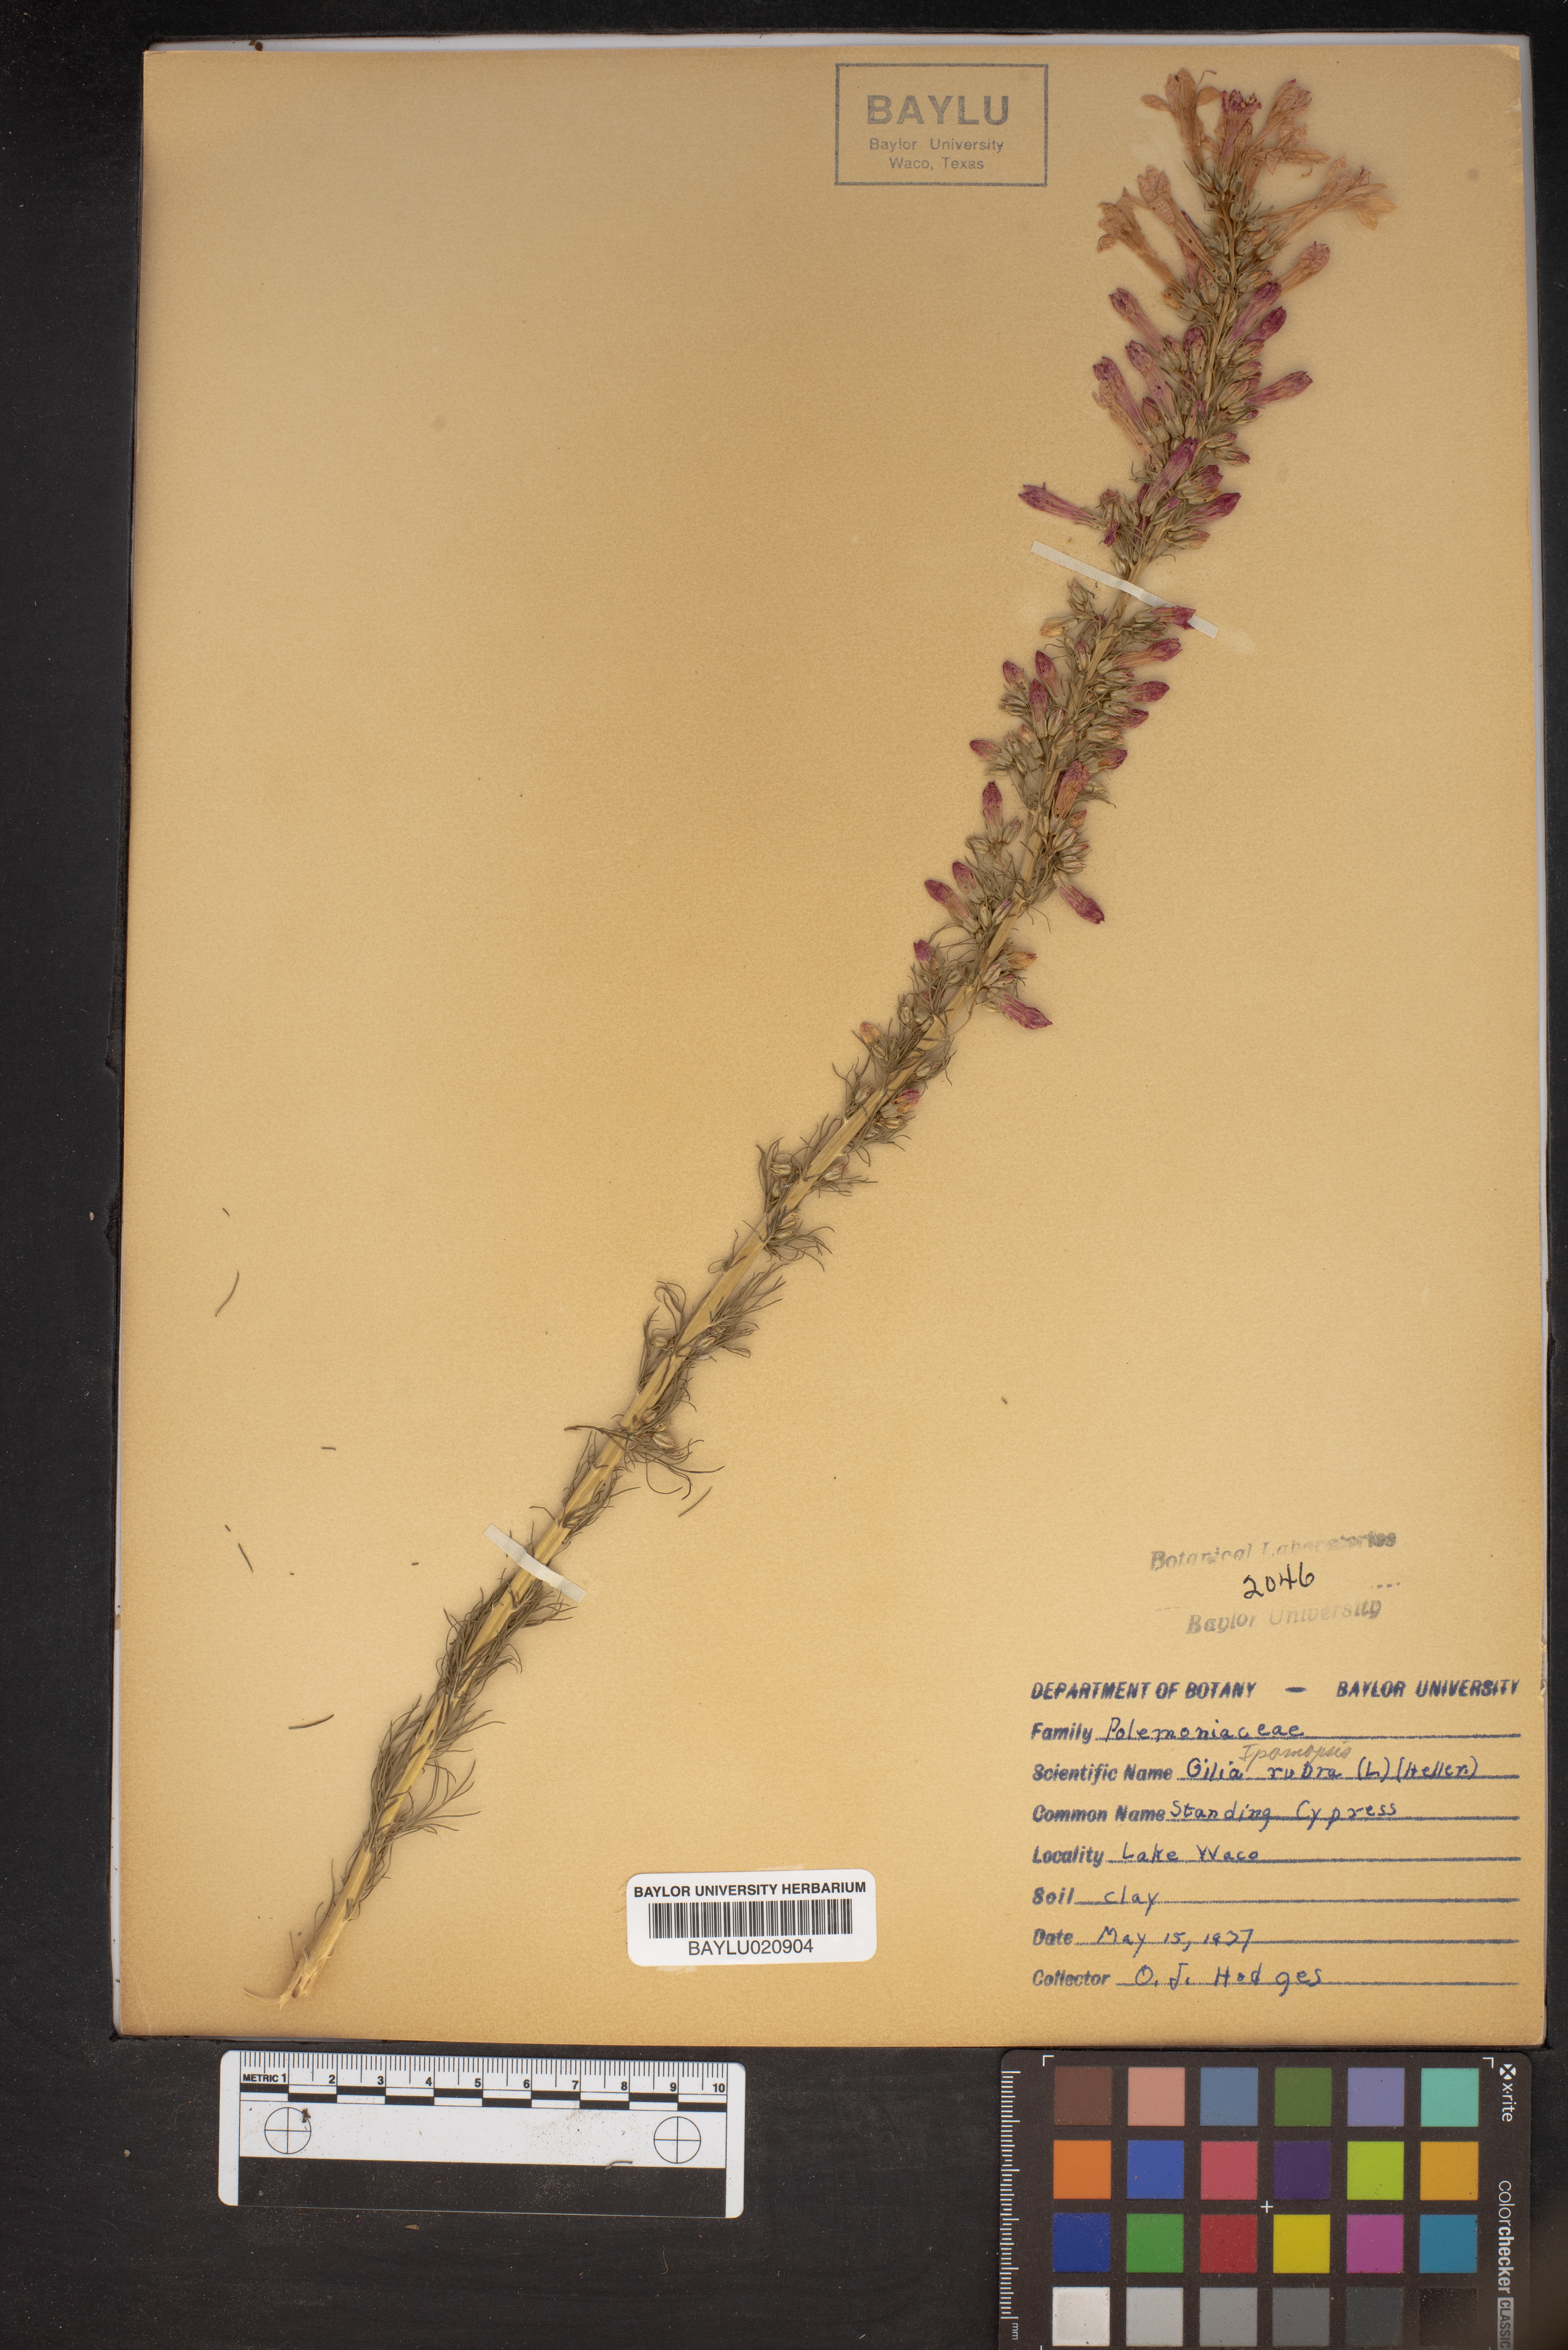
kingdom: Plantae
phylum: Tracheophyta
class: Magnoliopsida
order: Ericales
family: Polemoniaceae
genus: Ipomopsis
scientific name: Ipomopsis rubra
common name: Skyrocket
